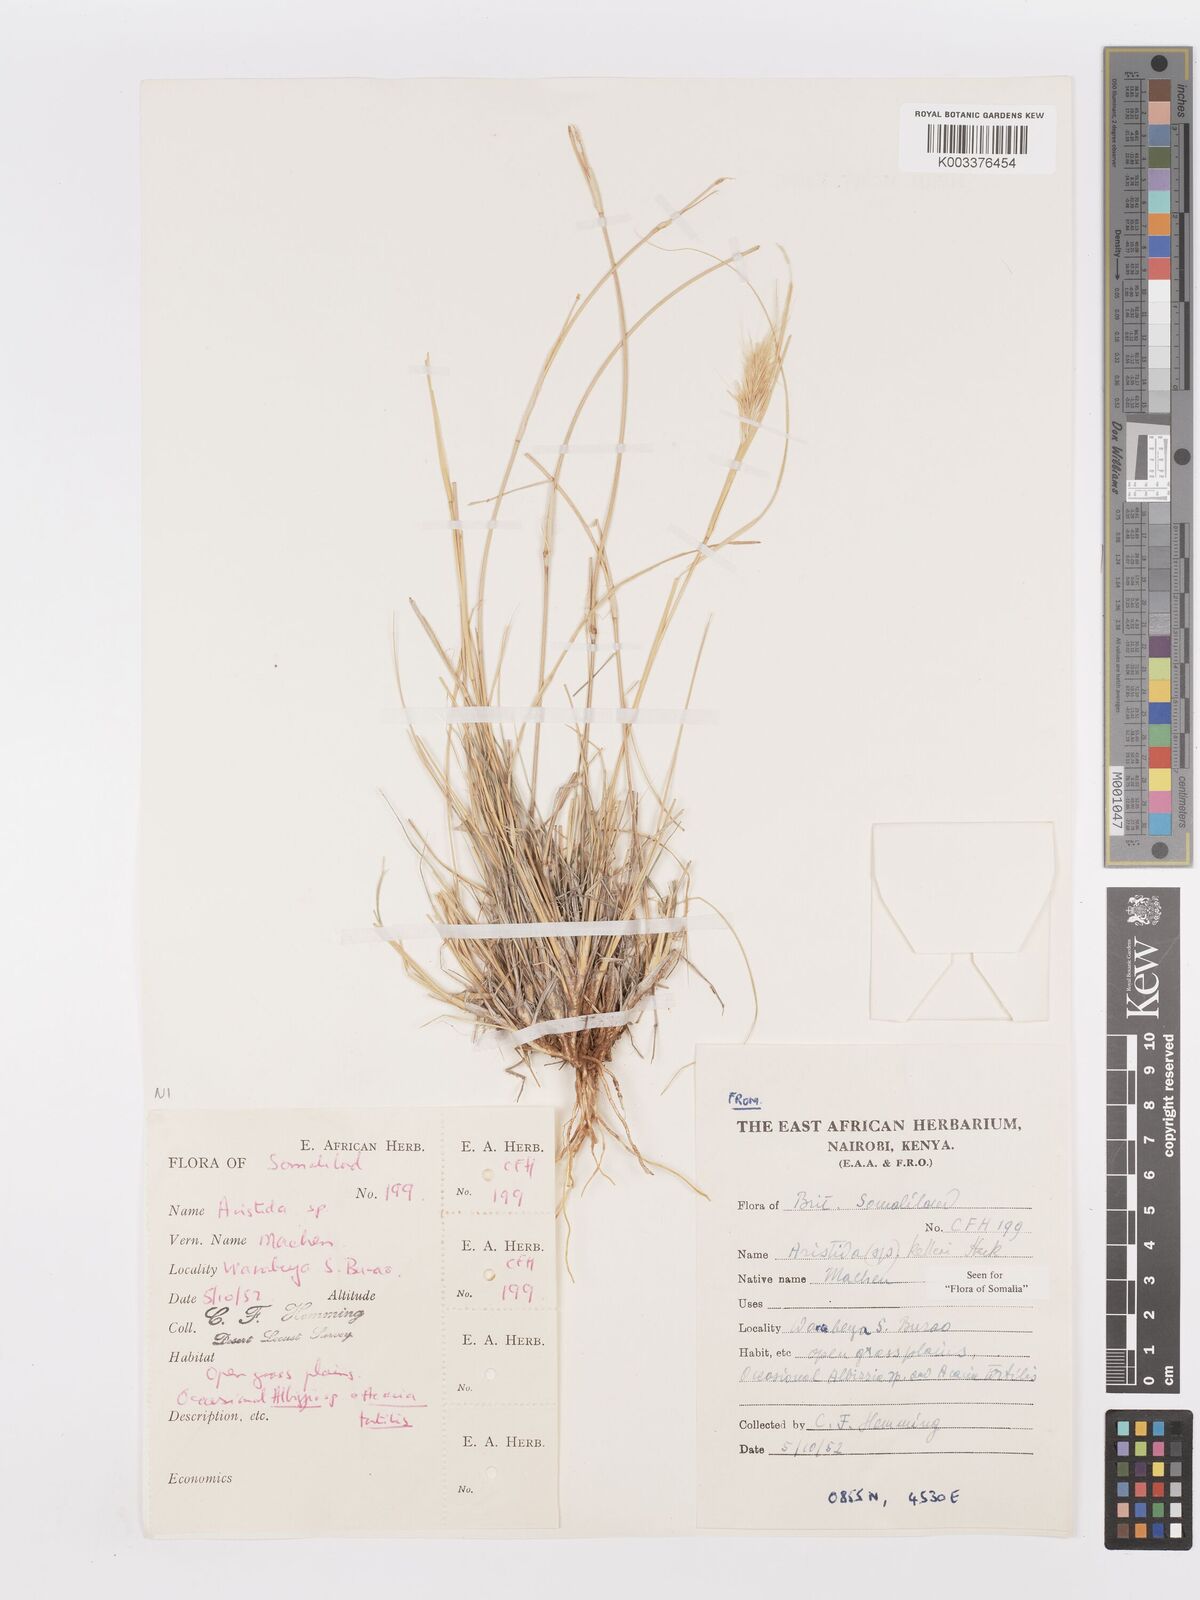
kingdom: Plantae
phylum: Tracheophyta
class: Liliopsida
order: Poales
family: Poaceae
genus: Aristida
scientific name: Aristida kelleri
